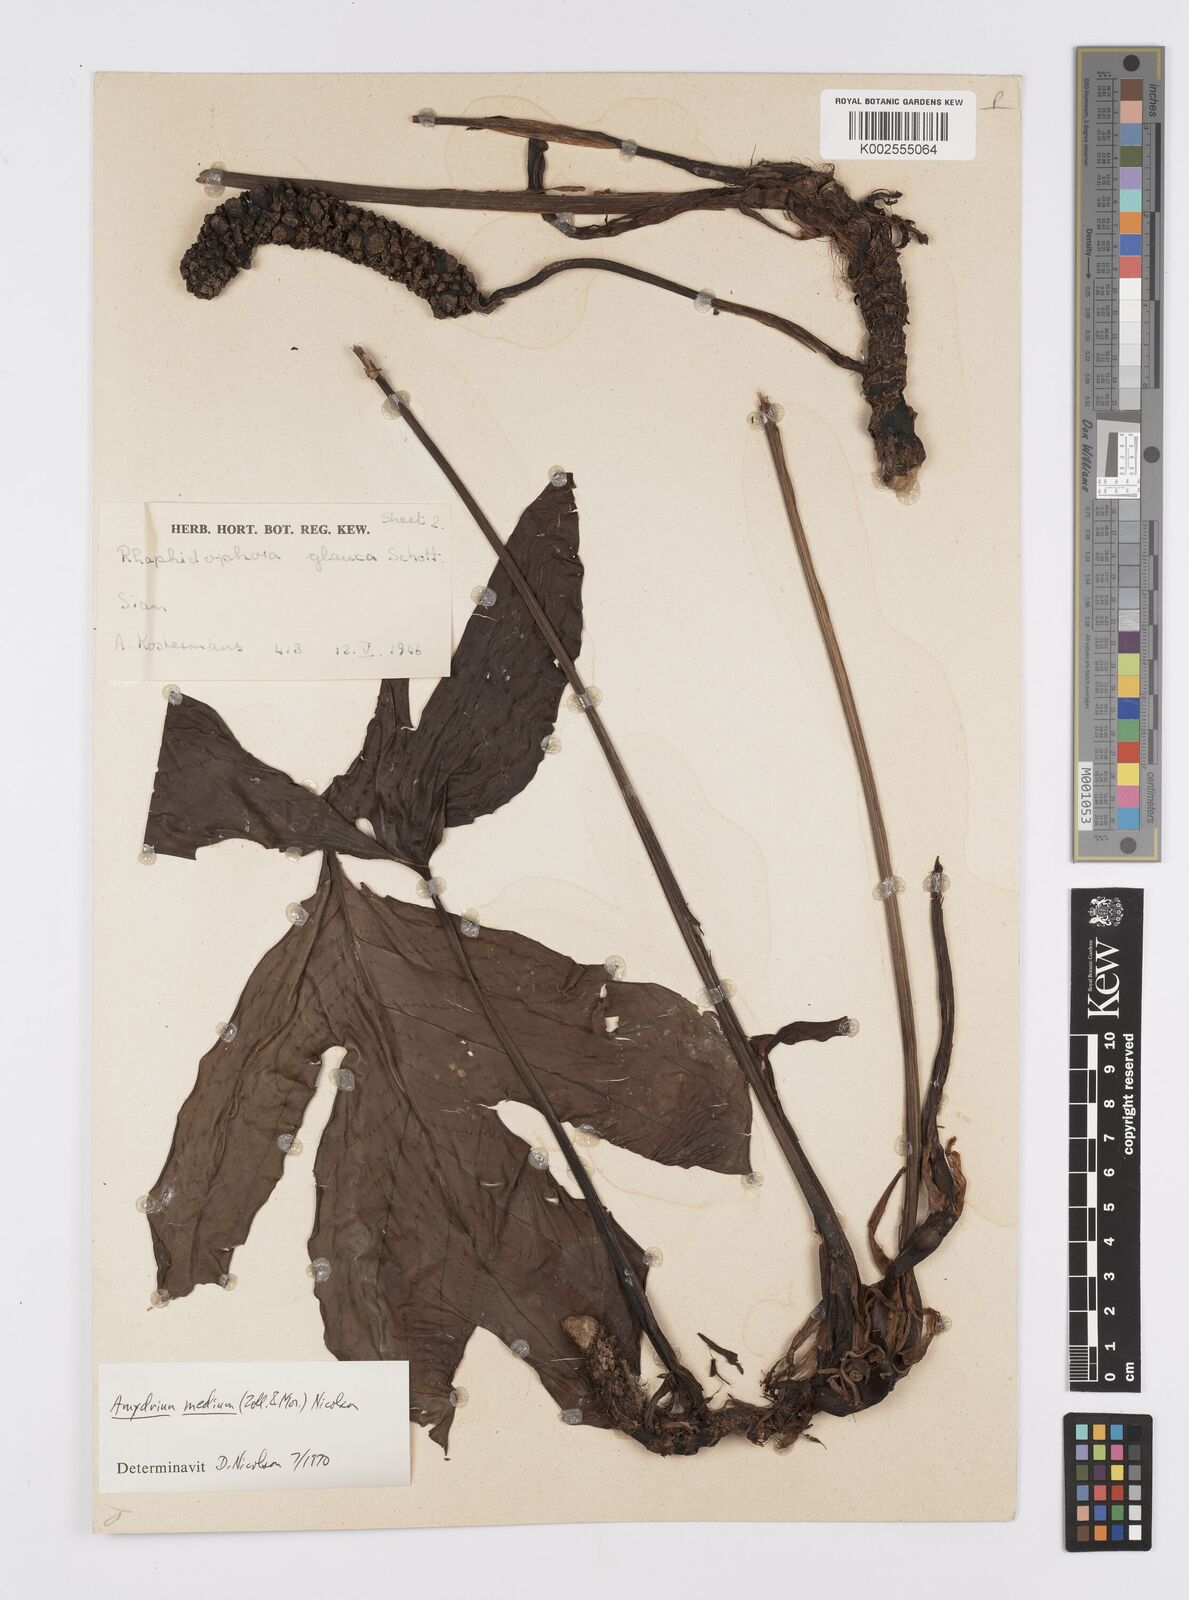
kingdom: Plantae
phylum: Tracheophyta
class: Liliopsida
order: Alismatales
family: Araceae
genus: Amydrium
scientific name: Amydrium medium
